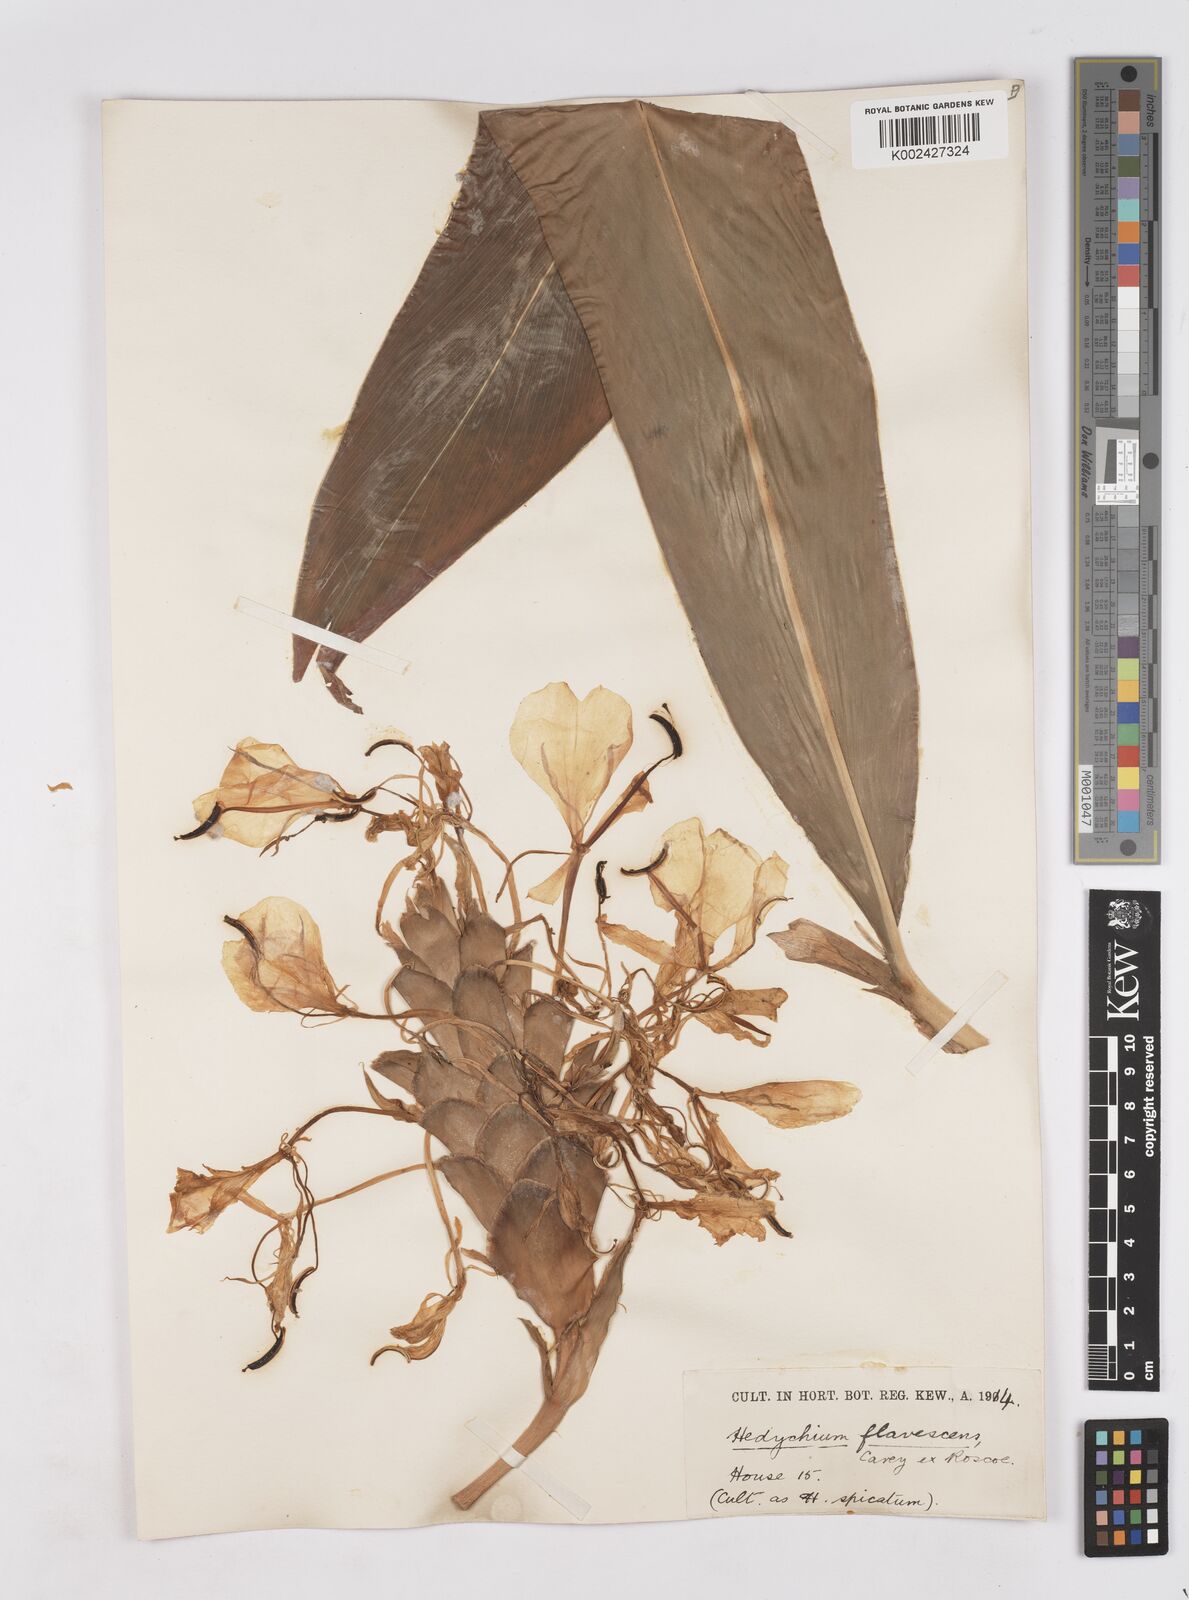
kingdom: Plantae
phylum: Tracheophyta
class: Liliopsida
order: Zingiberales
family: Zingiberaceae
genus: Hedychium
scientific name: Hedychium flavescens
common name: Yellow ginger
